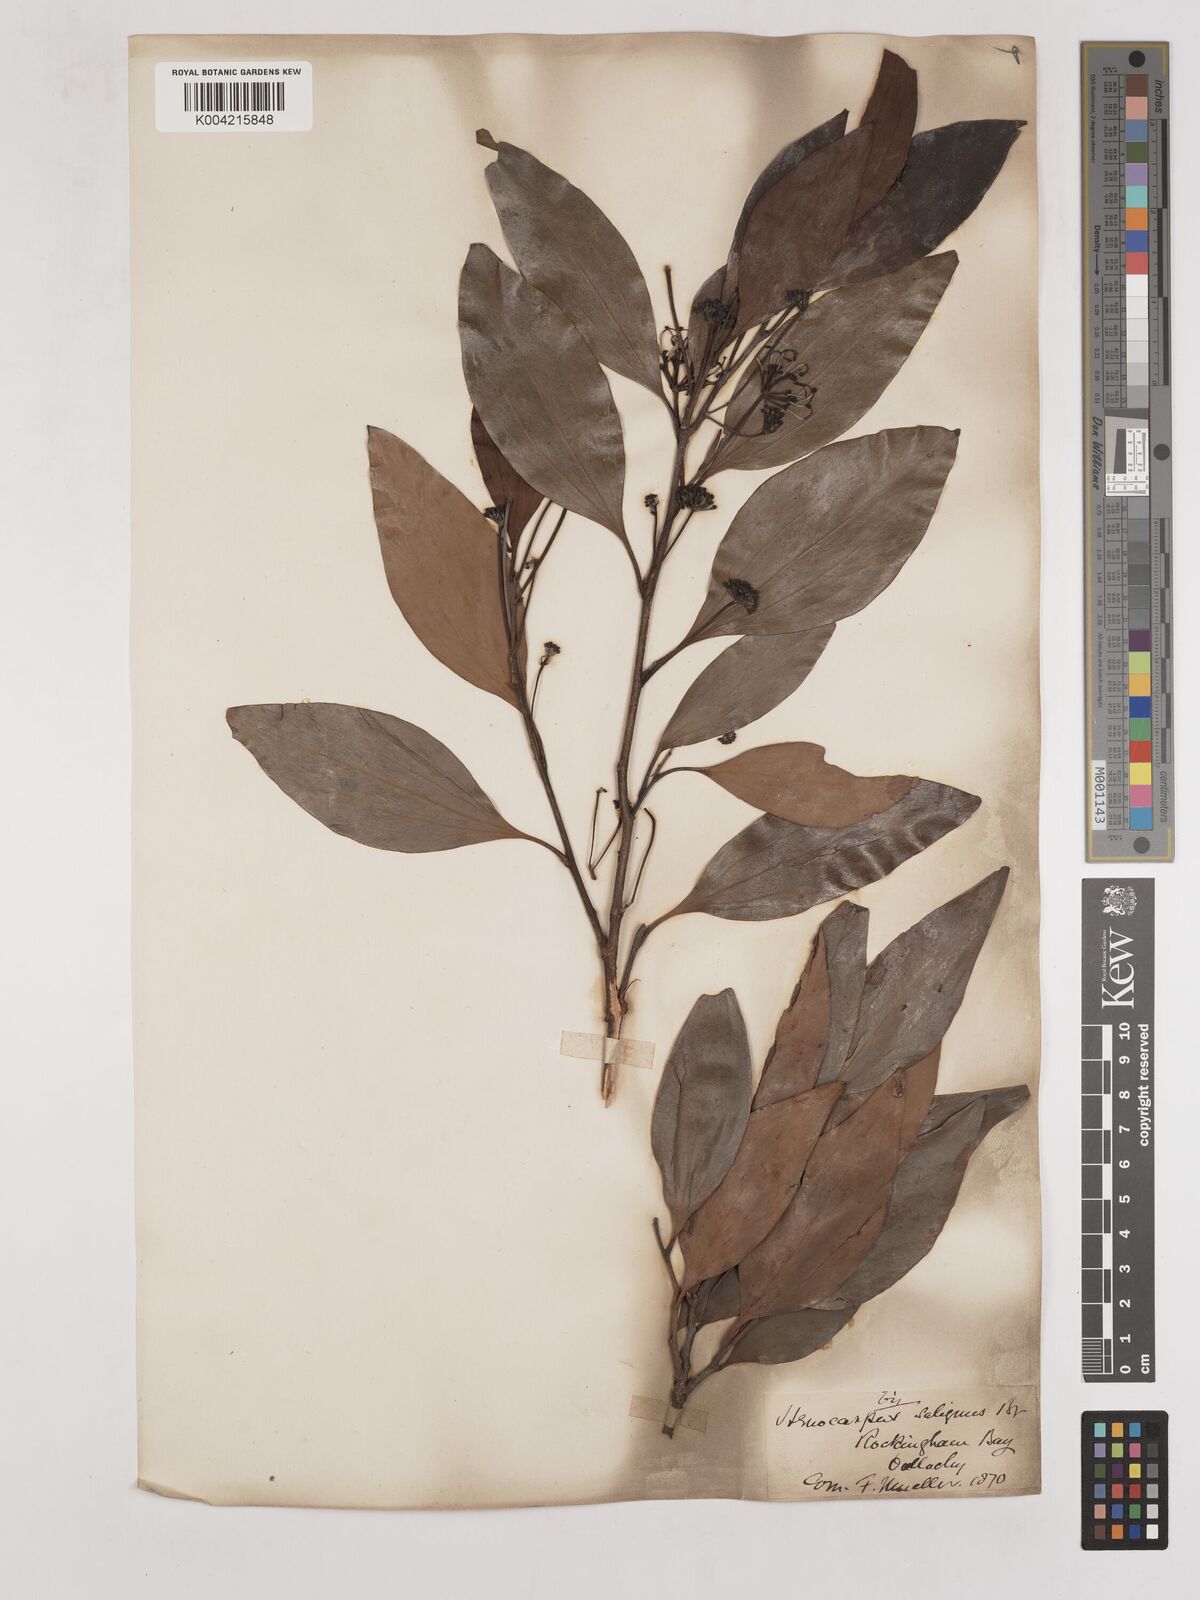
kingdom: Plantae
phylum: Tracheophyta
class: Magnoliopsida
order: Proteales
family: Proteaceae
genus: Stenocarpus
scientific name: Stenocarpus salignus
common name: Red silky-oak
